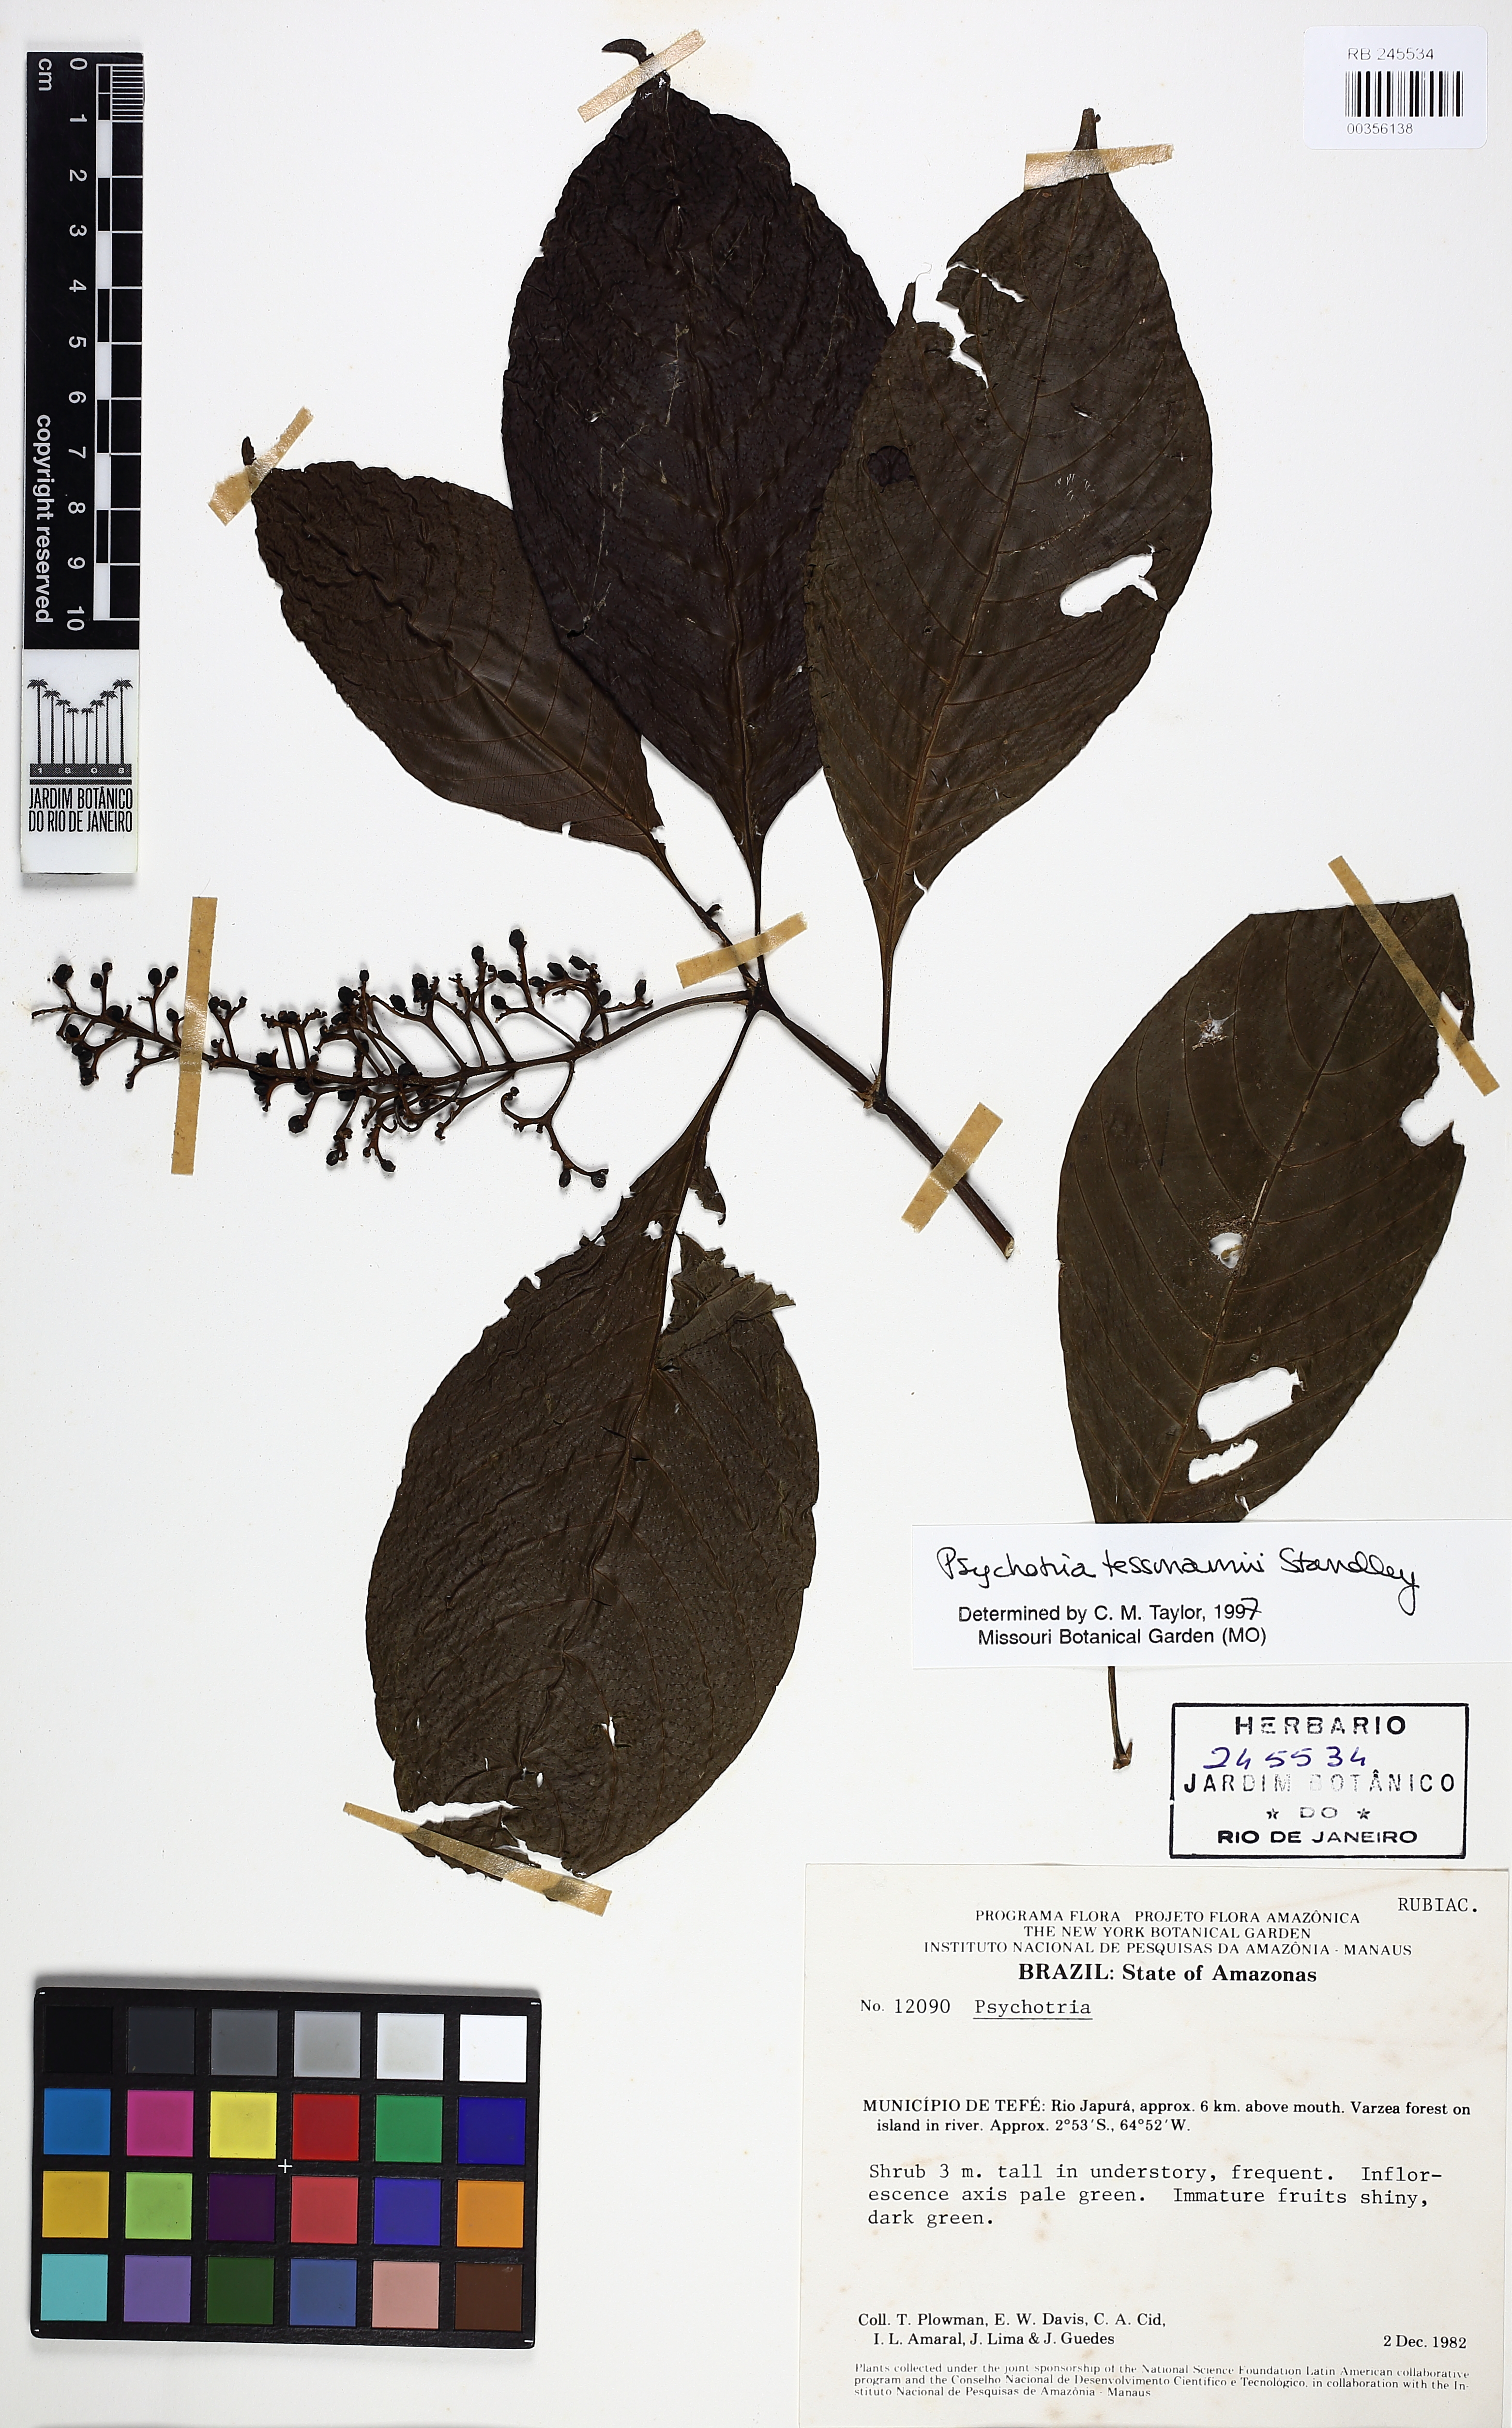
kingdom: Plantae
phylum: Tracheophyta
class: Magnoliopsida
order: Gentianales
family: Rubiaceae
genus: Palicourea
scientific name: Palicourea subfusca
